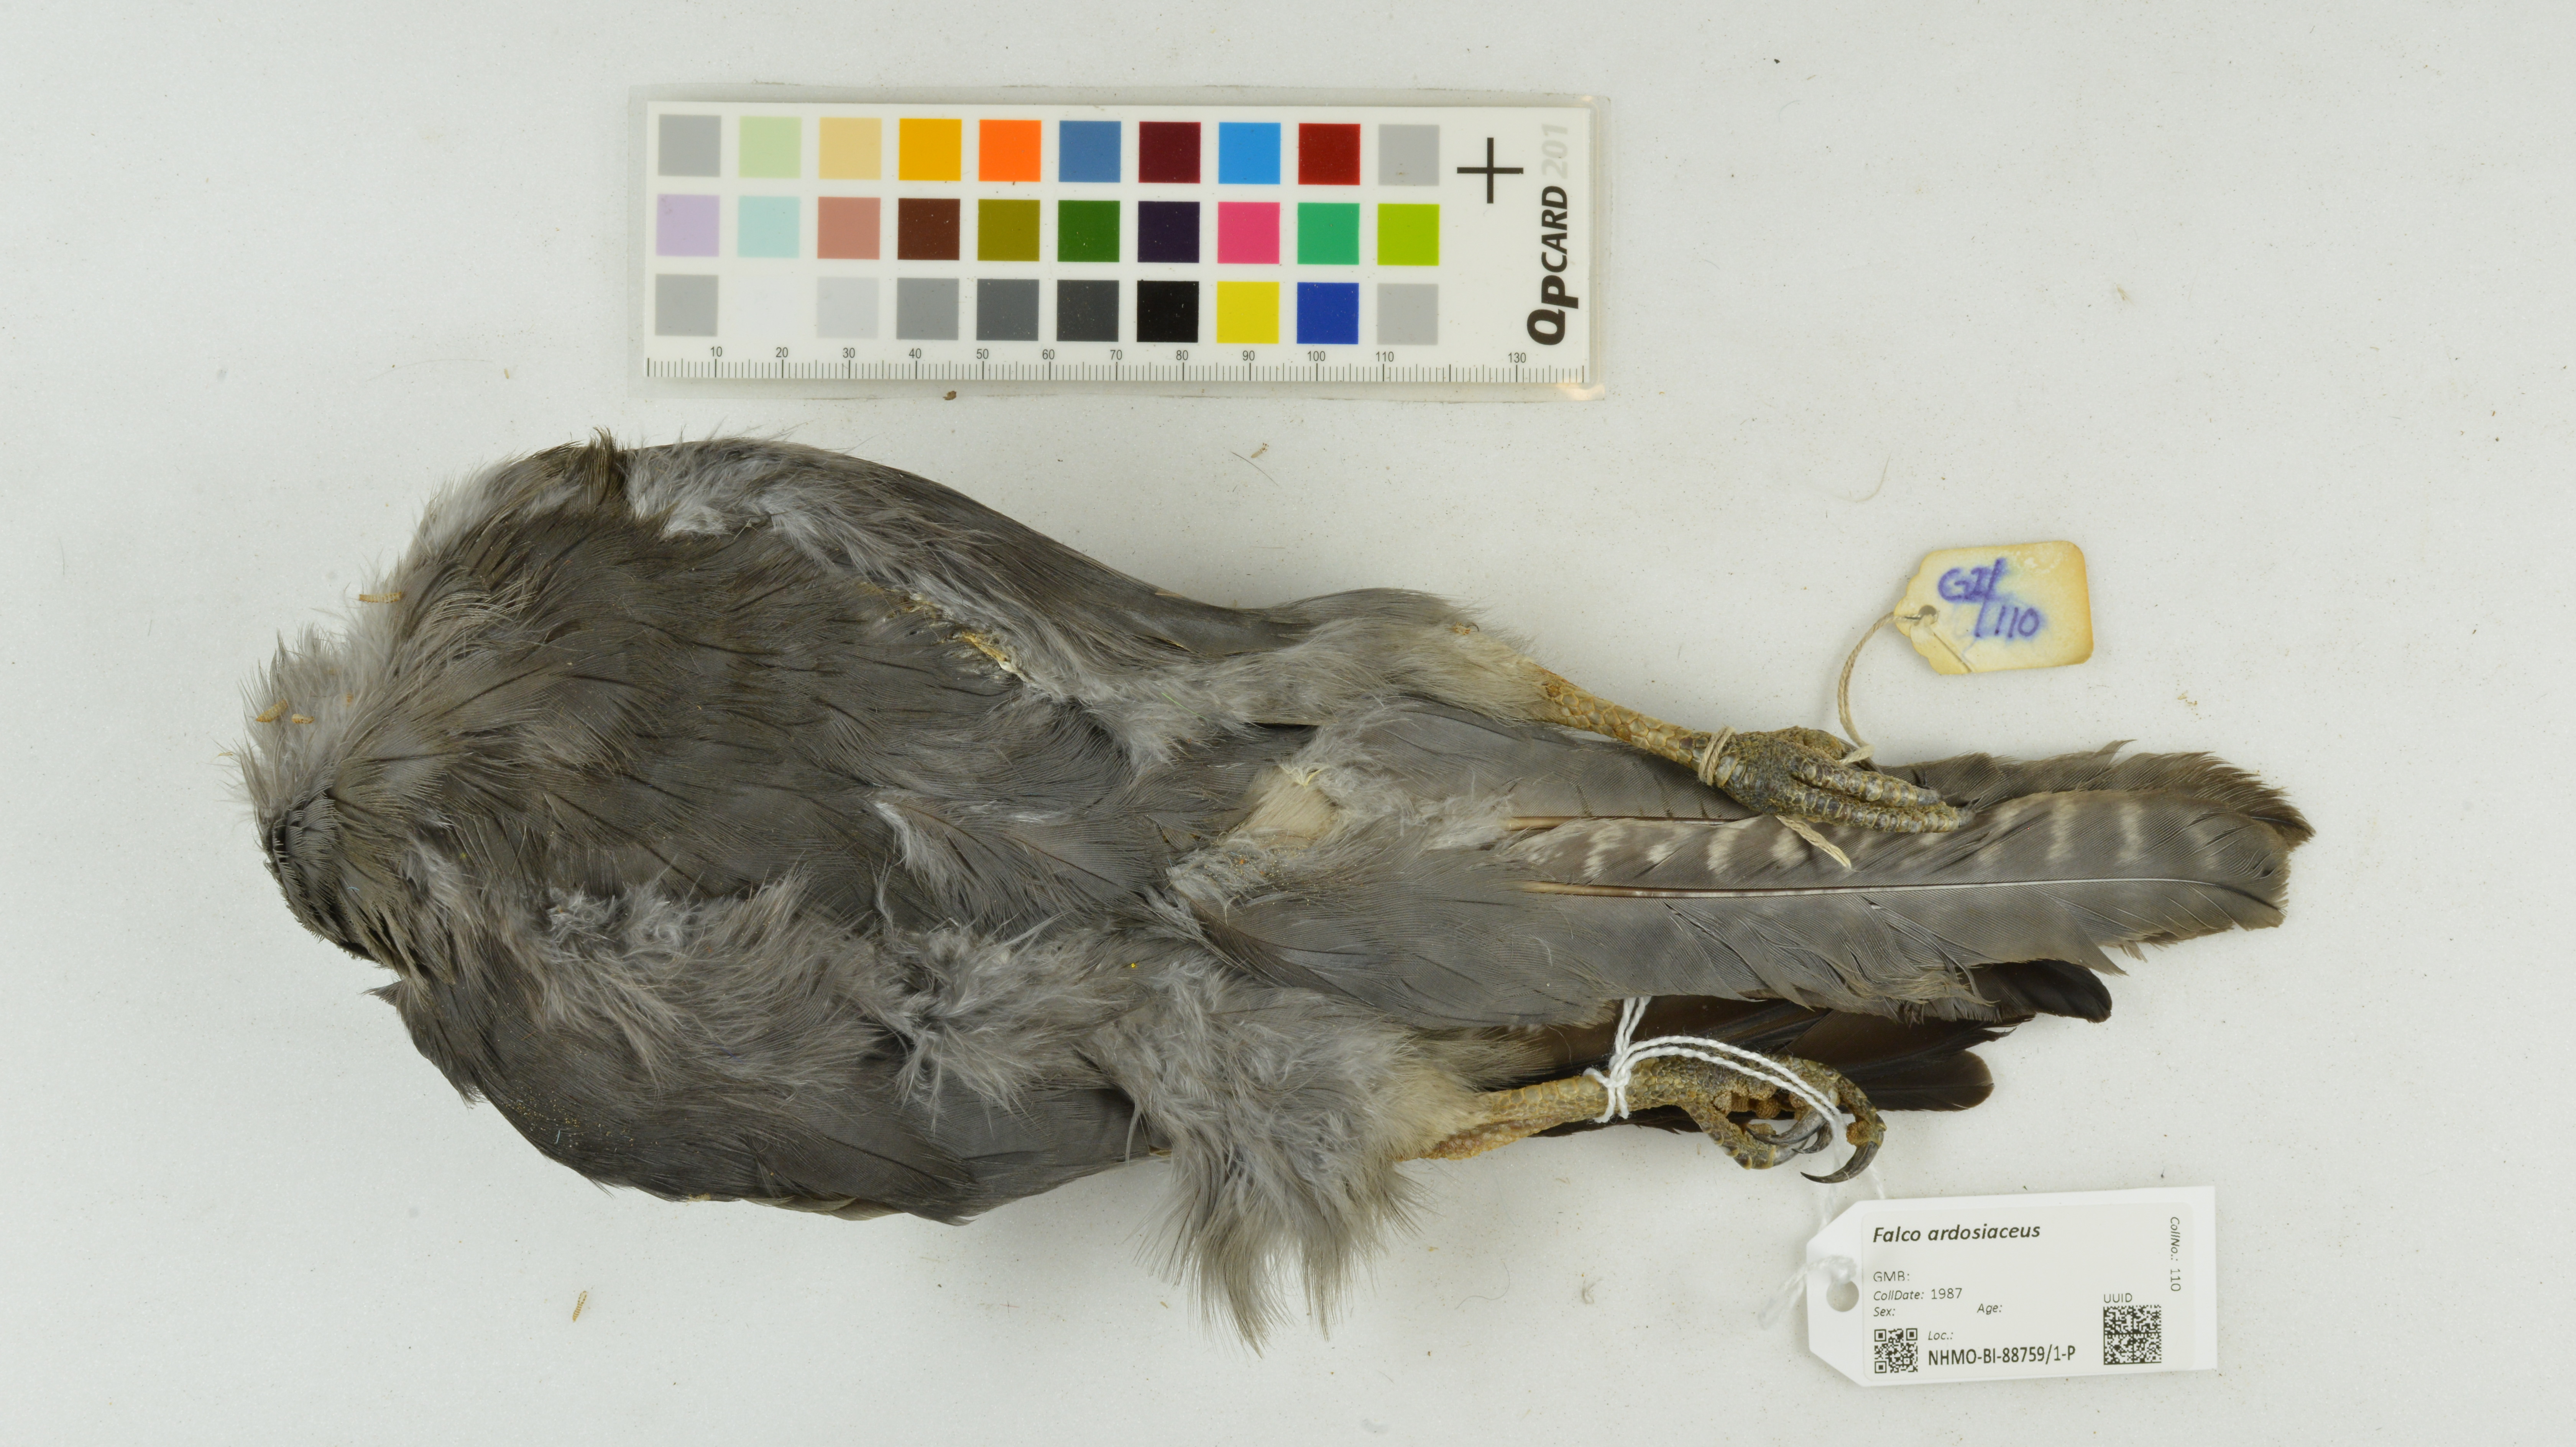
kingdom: Animalia
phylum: Chordata
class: Aves
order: Falconiformes
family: Falconidae
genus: Falco
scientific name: Falco ardosiaceus
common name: Grey kestrel
